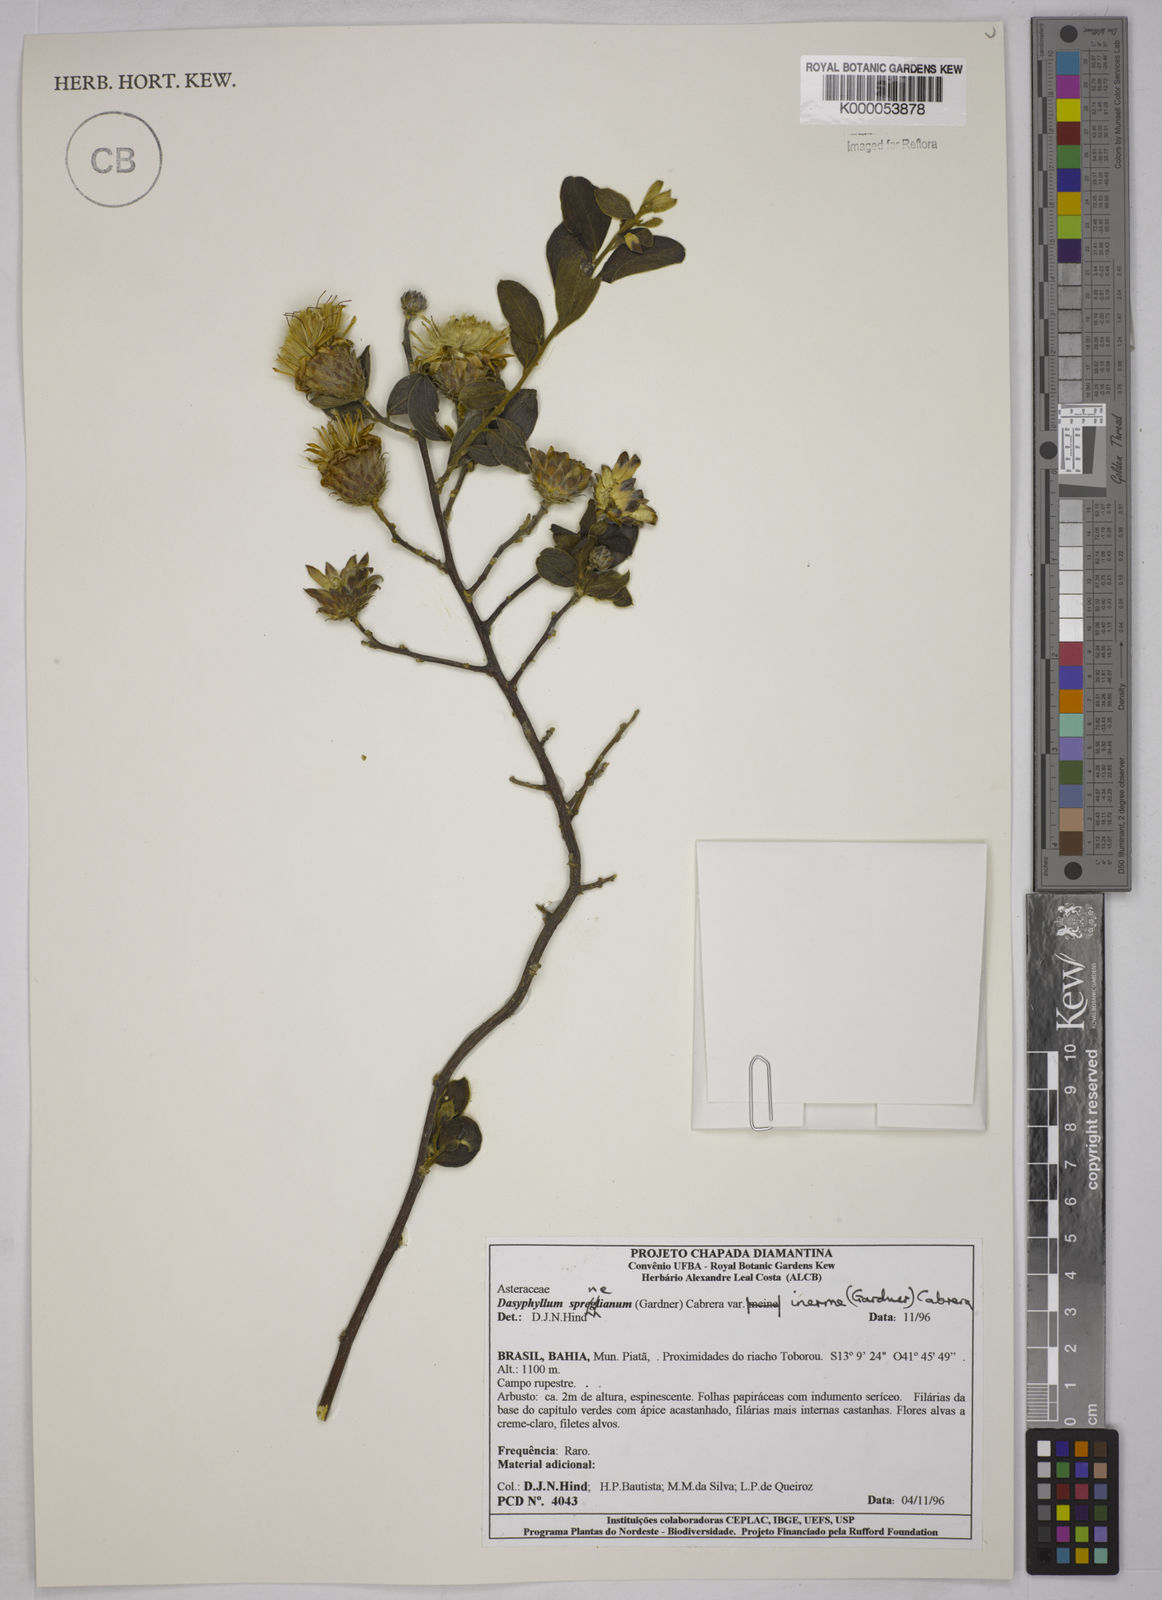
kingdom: Plantae
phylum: Tracheophyta
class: Magnoliopsida
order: Asterales
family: Asteraceae
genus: Dasyphyllum
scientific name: Dasyphyllum sprengelianum
